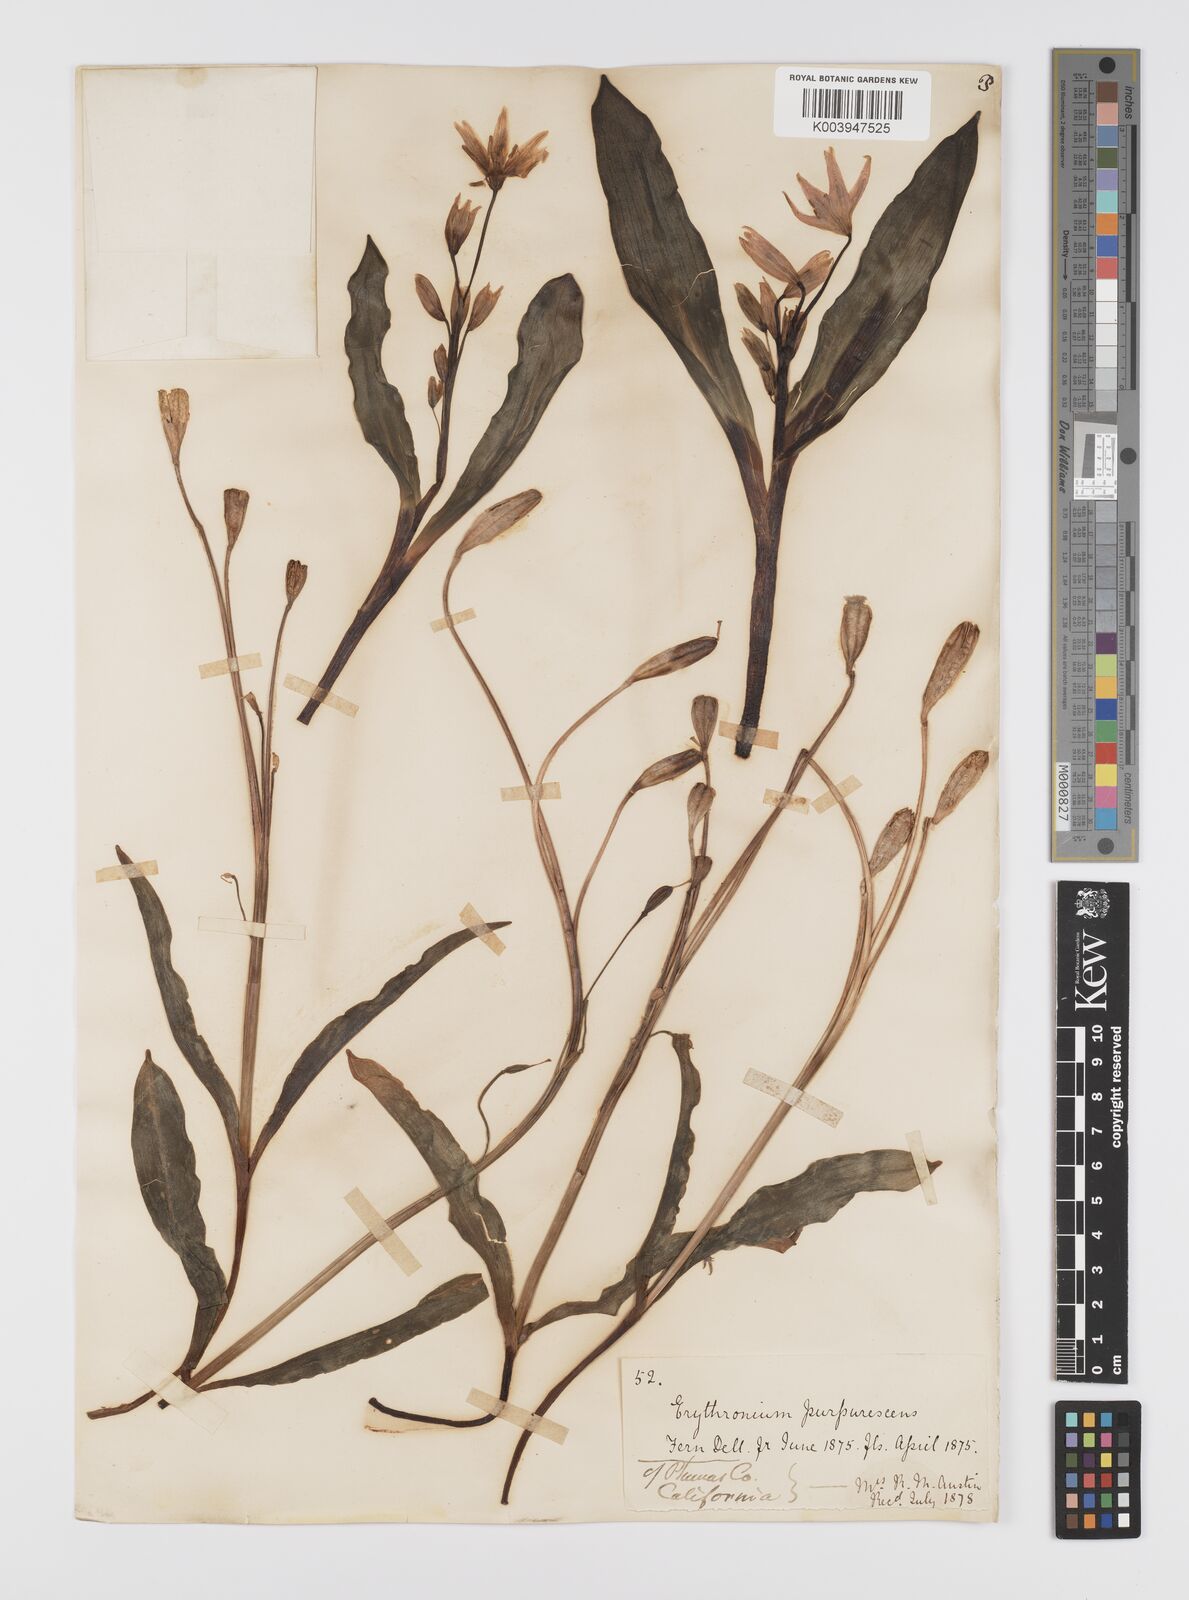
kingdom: Plantae
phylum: Tracheophyta
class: Liliopsida
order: Liliales
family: Liliaceae
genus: Erythronium
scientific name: Erythronium purpurascens
